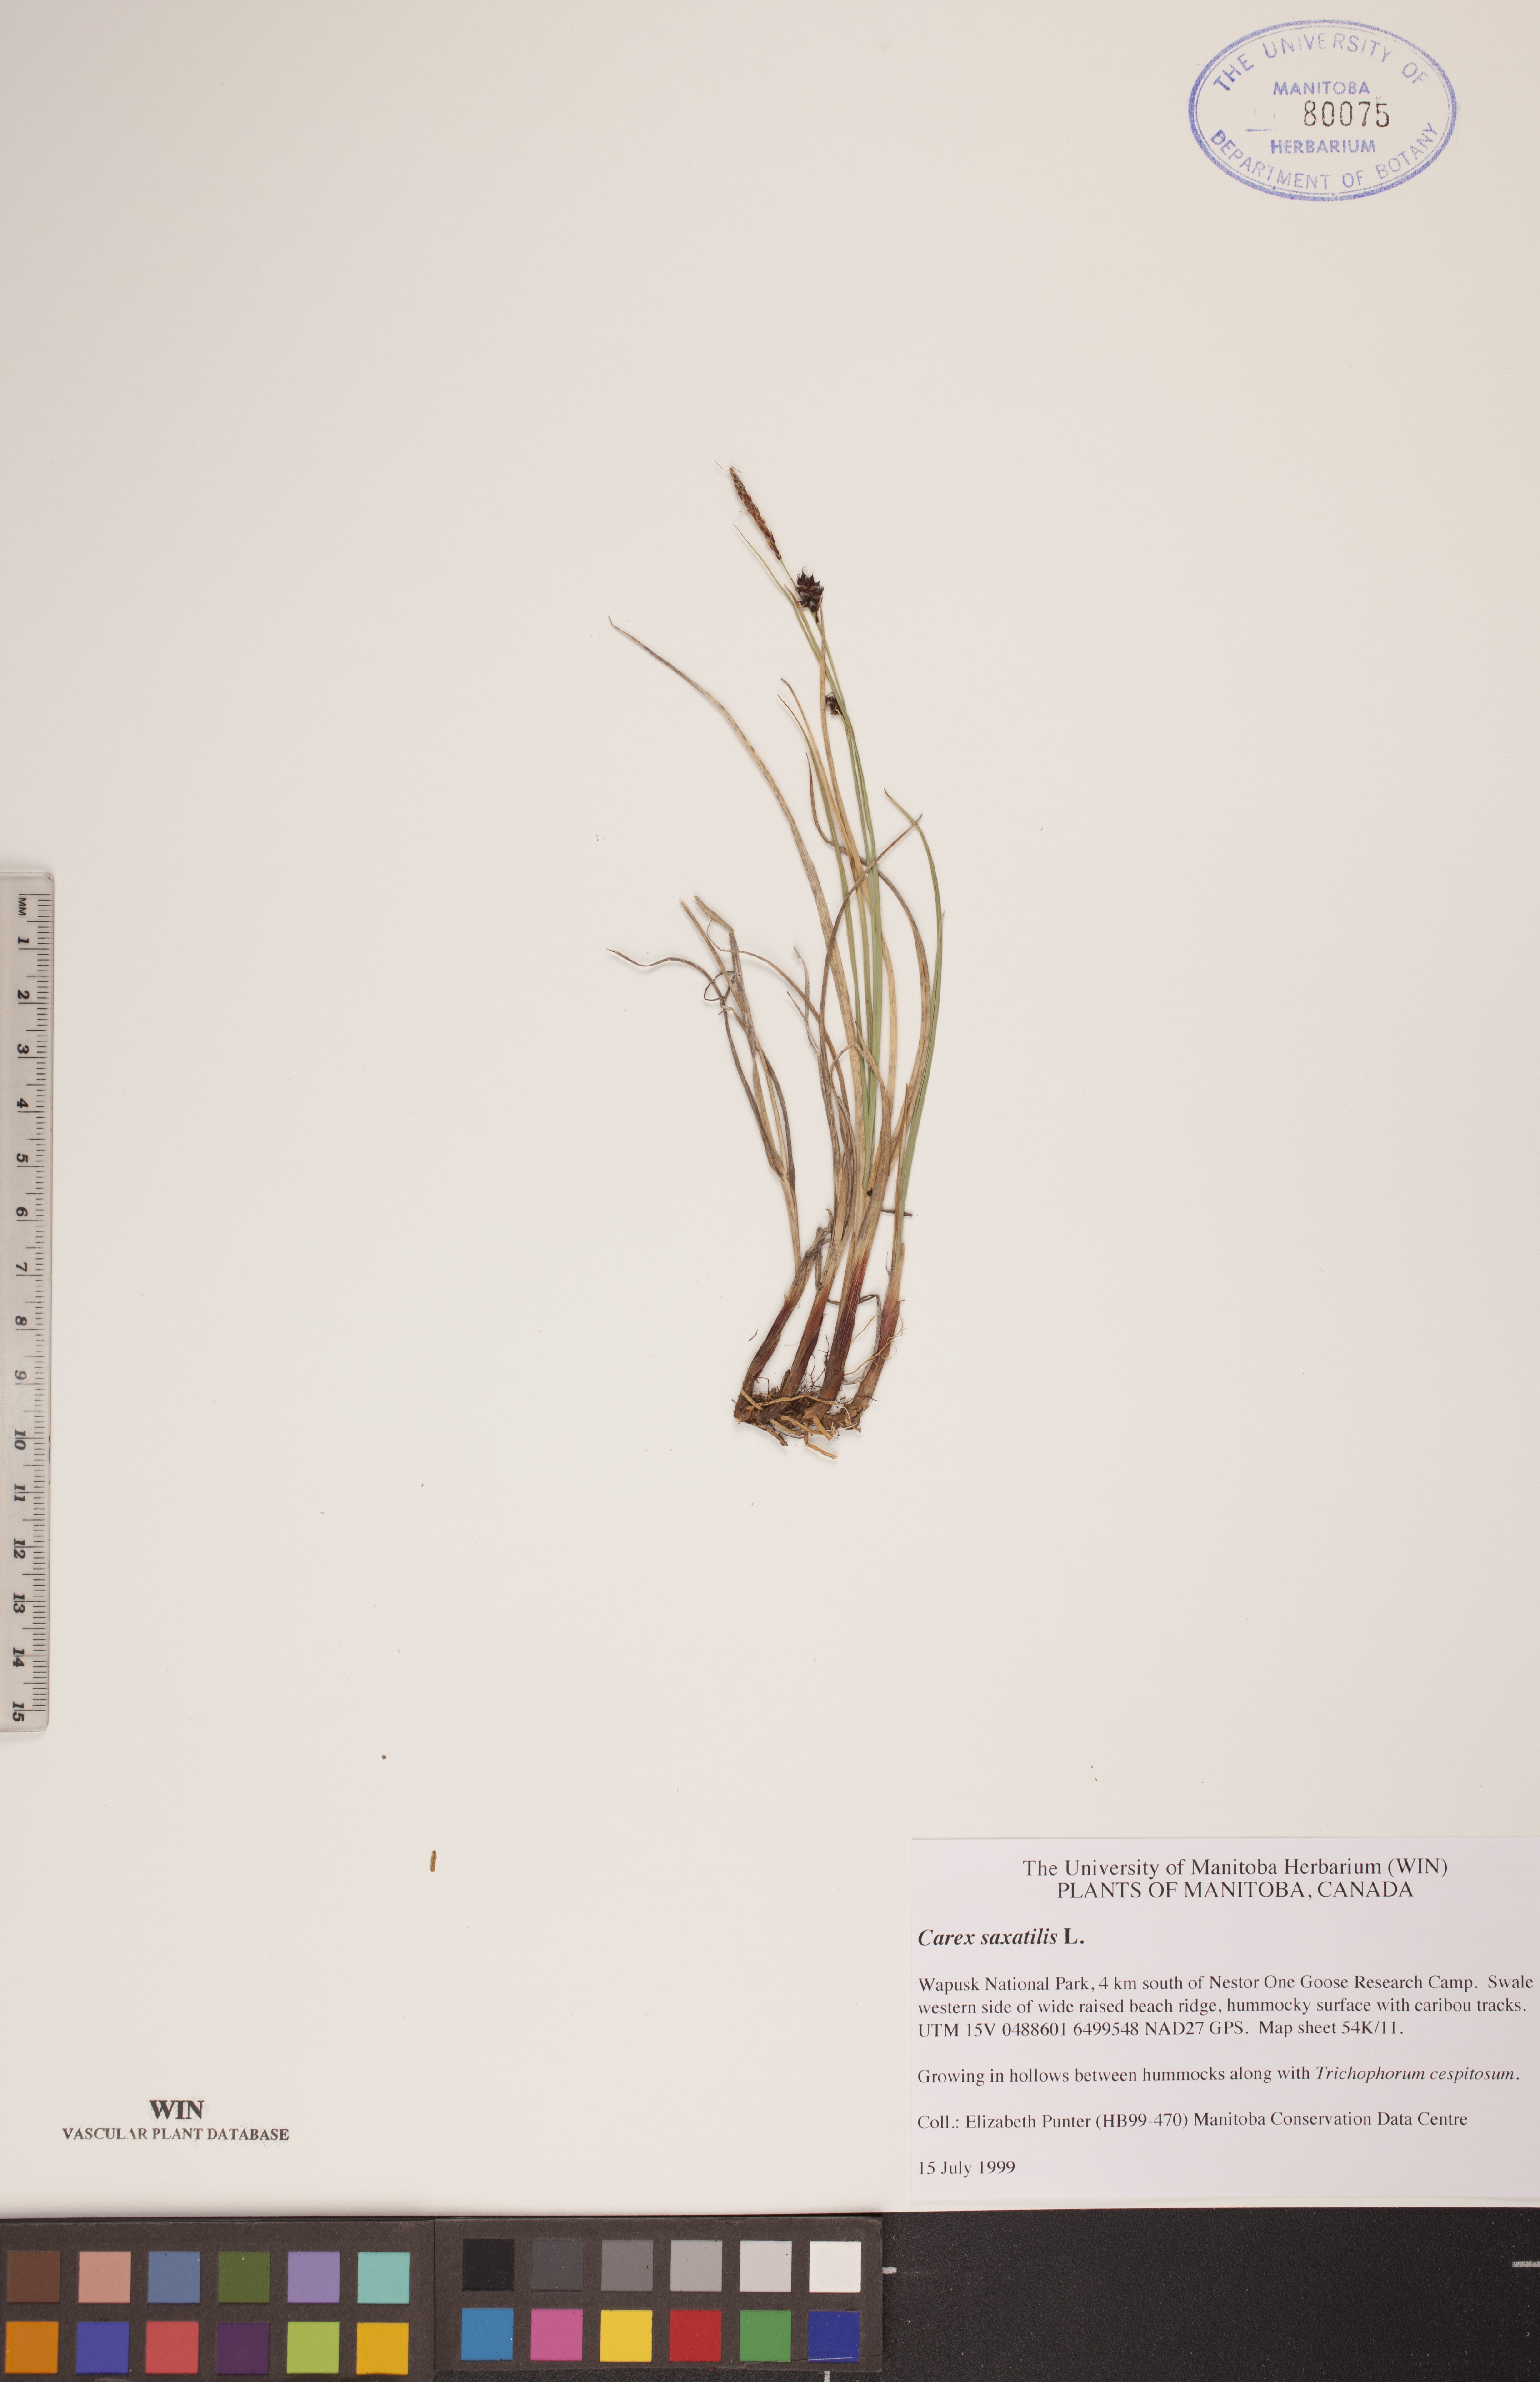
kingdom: Plantae
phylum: Tracheophyta
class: Liliopsida
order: Poales
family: Cyperaceae
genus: Carex
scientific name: Carex saxatilis
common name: Russet sedge
